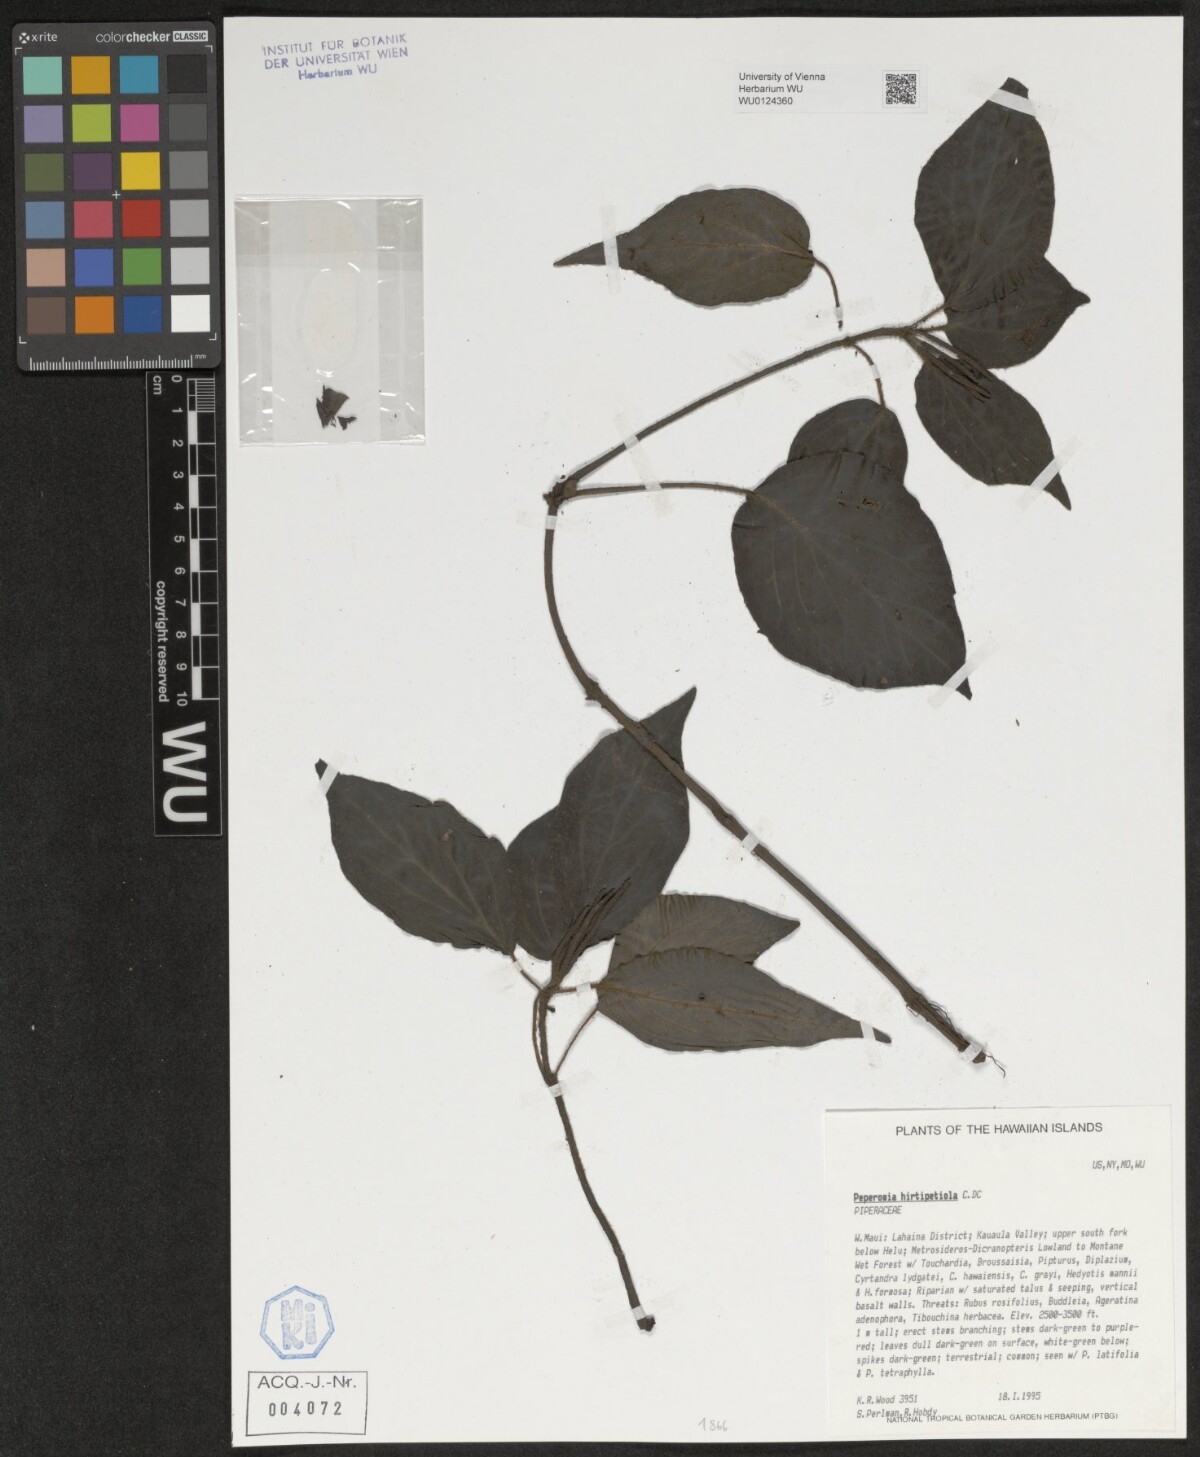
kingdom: Plantae
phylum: Tracheophyta
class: Magnoliopsida
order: Piperales
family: Piperaceae
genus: Peperomia
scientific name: Peperomia hirtipetiola
